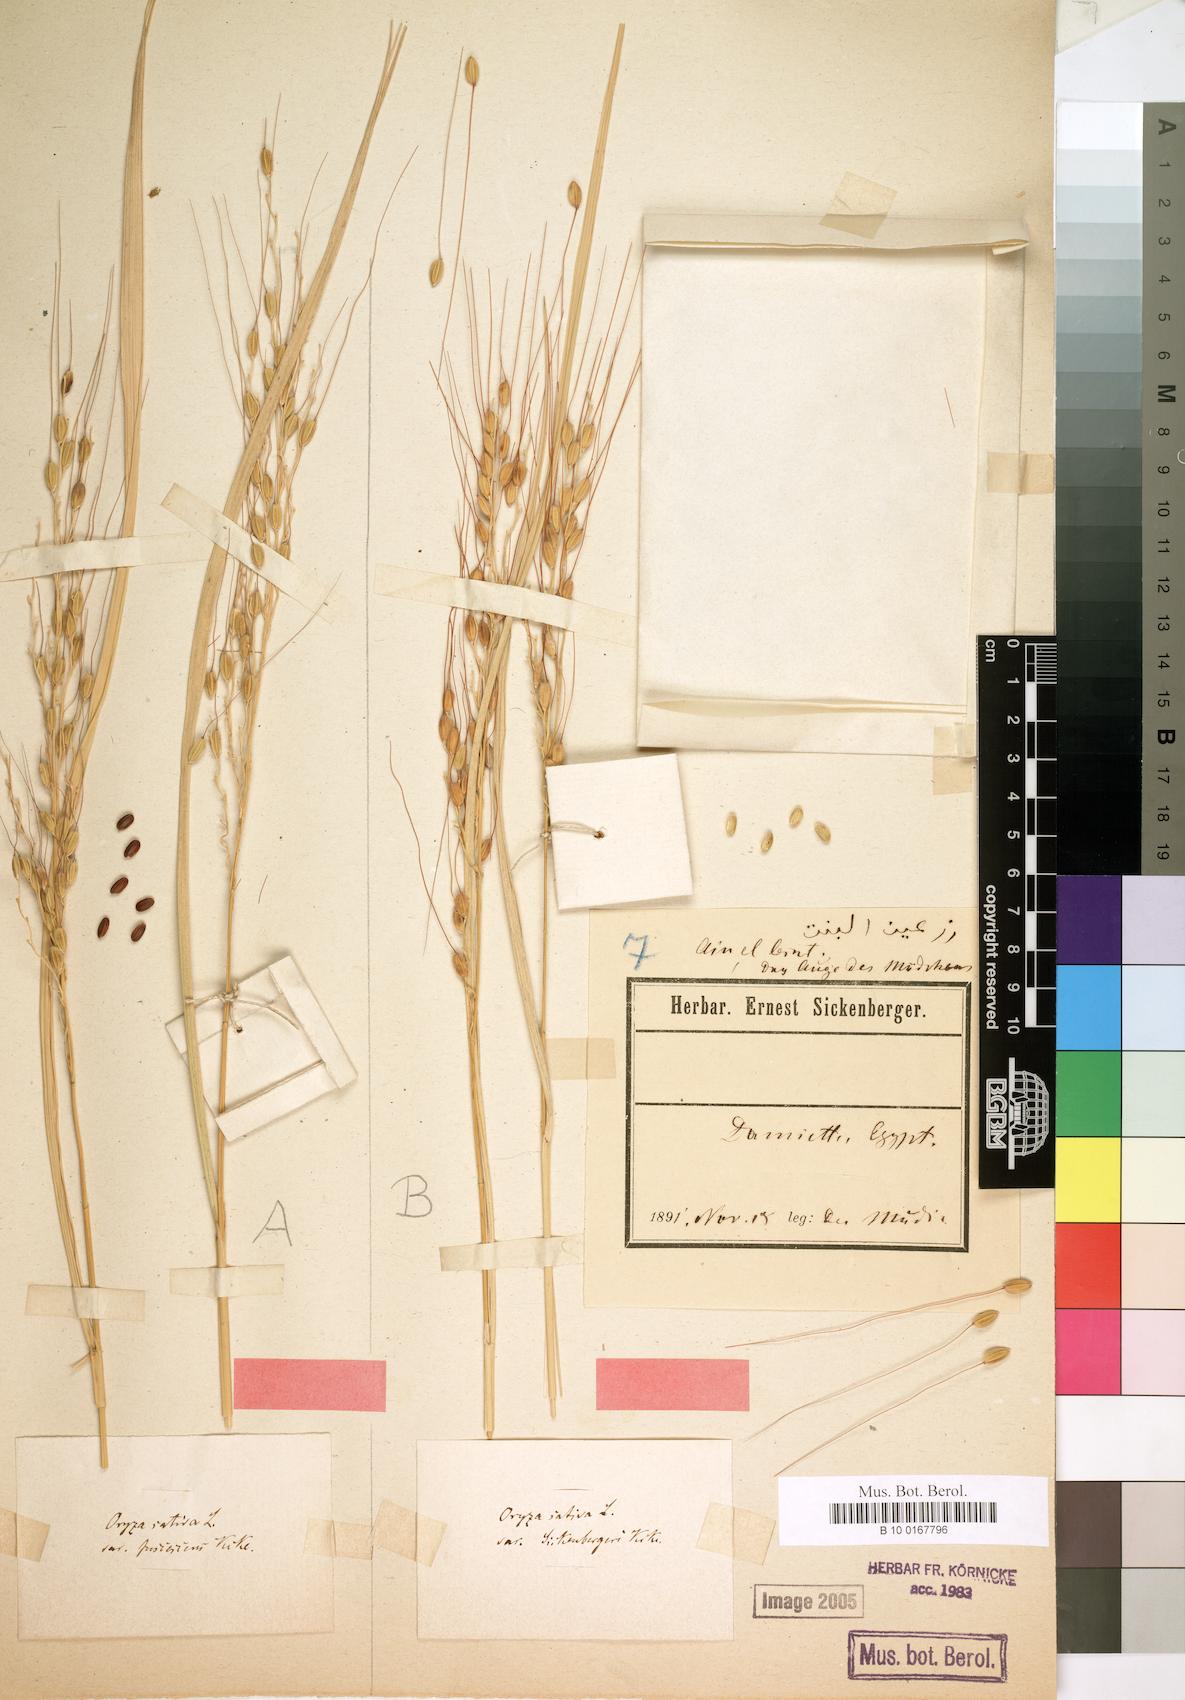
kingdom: Plantae
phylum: Tracheophyta
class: Liliopsida
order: Poales
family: Poaceae
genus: Oryza
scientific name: Oryza sativa
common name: Rice
